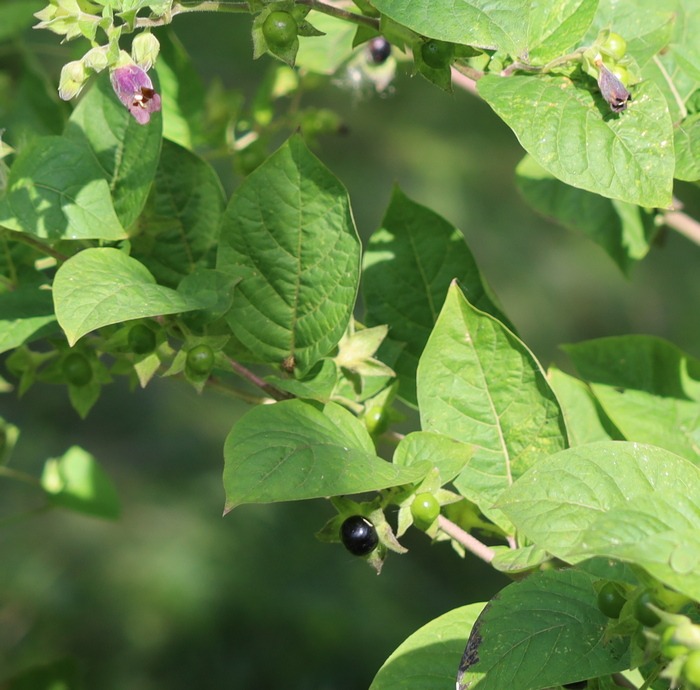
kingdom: Plantae
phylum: Tracheophyta
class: Magnoliopsida
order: Solanales
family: Solanaceae
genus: Atropa
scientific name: Atropa belladonna
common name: Galnebær
